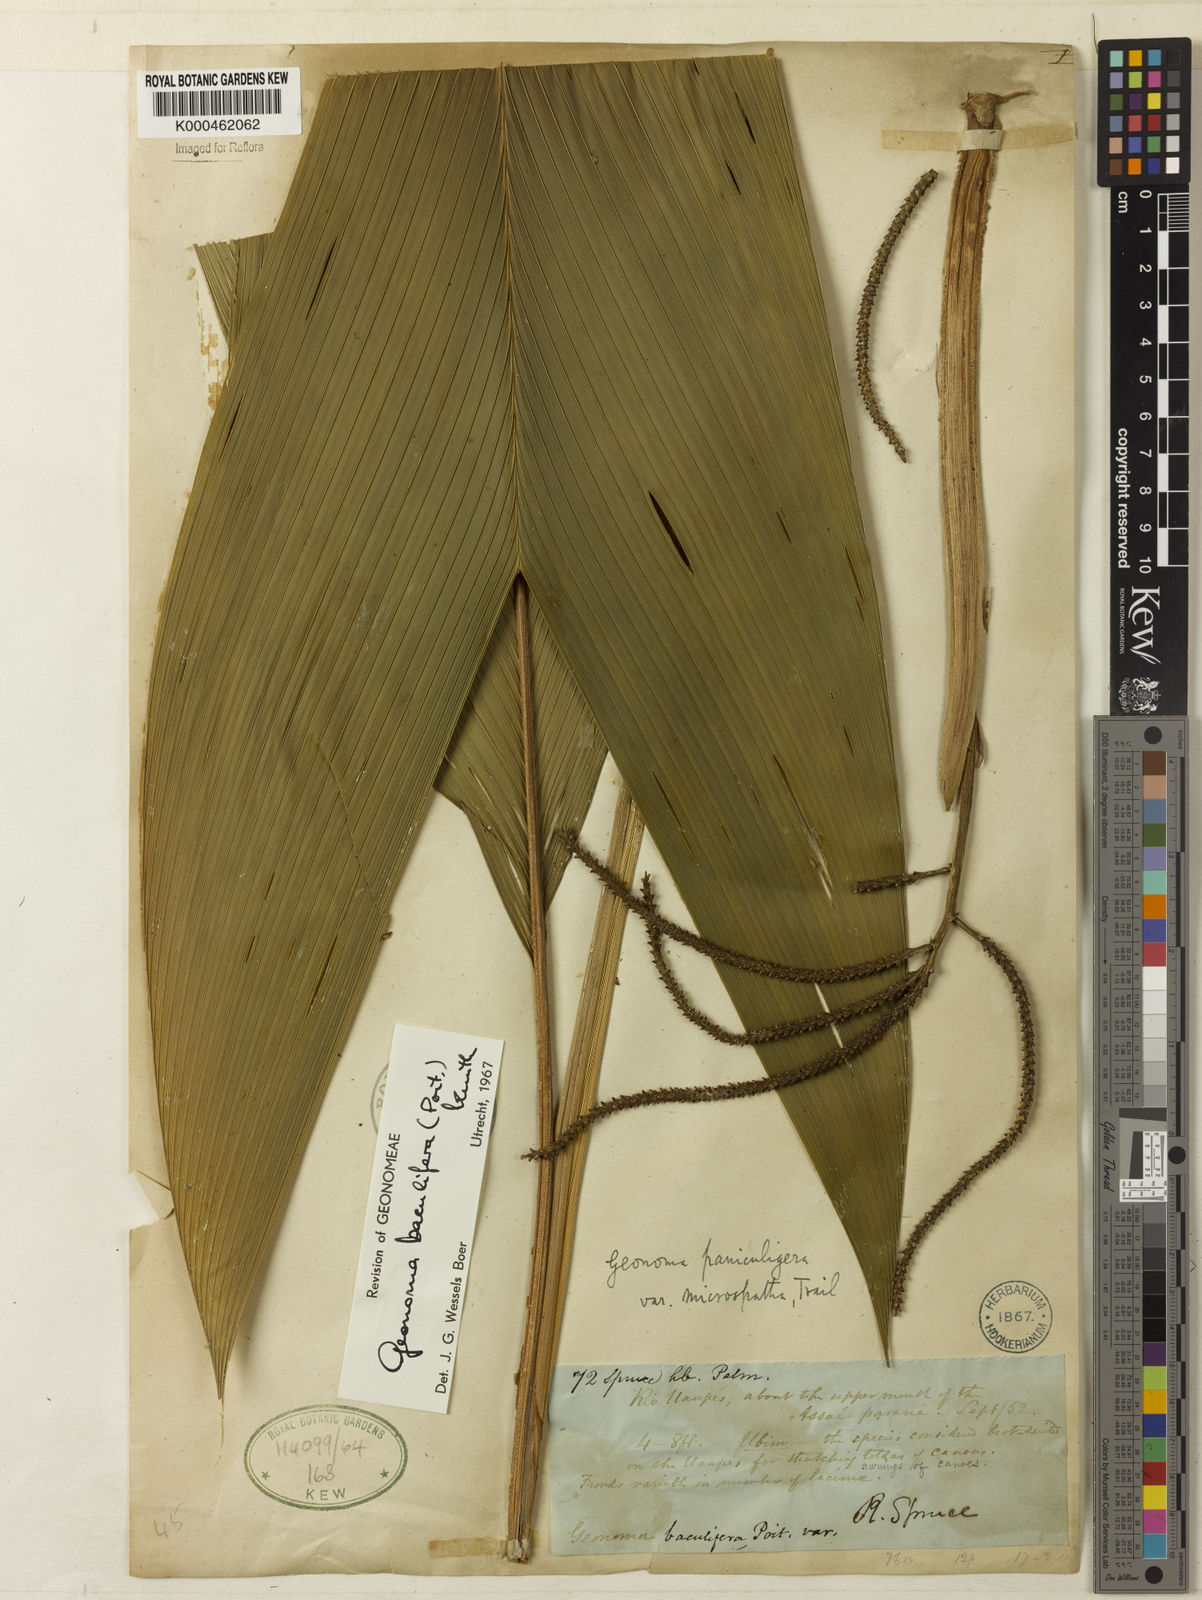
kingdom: Plantae
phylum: Tracheophyta
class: Liliopsida
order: Arecales
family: Arecaceae
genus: Geonoma
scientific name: Geonoma baculifera
